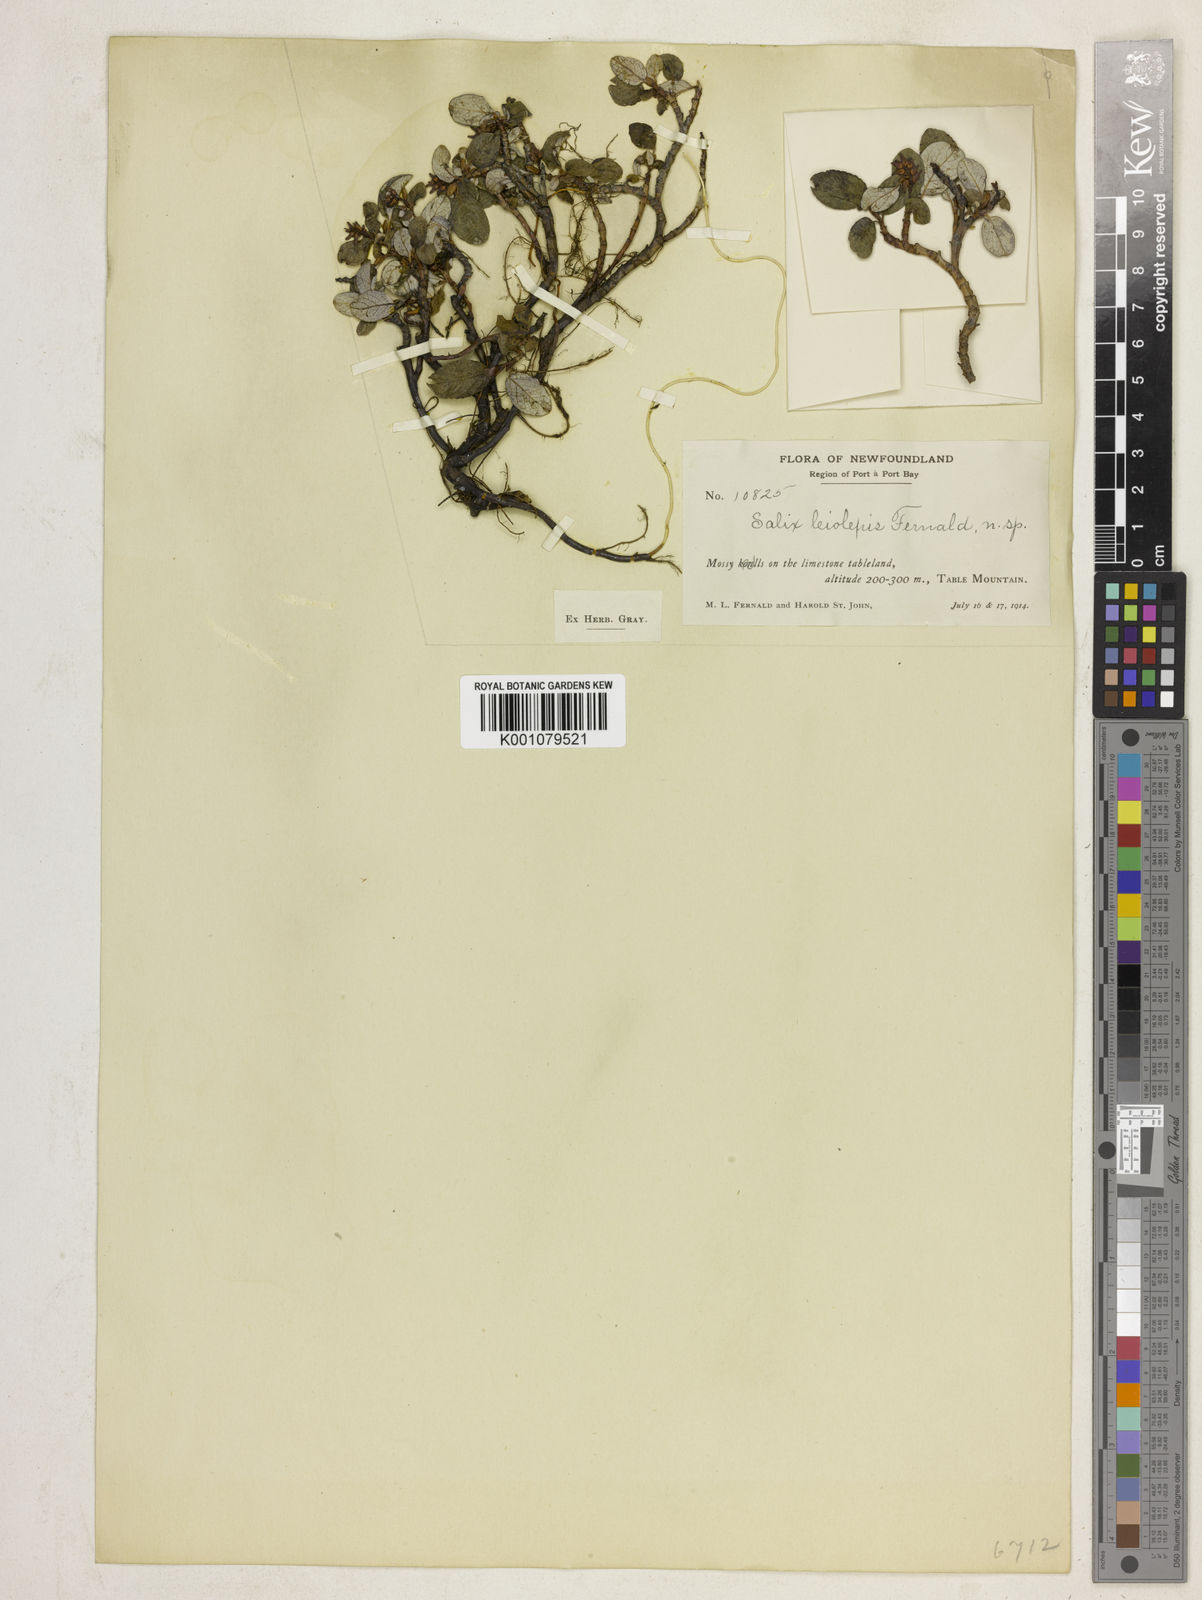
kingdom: Plantae
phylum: Tracheophyta
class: Magnoliopsida
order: Malpighiales
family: Salicaceae
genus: Salix
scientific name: Salix vestita
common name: Hairy willow
